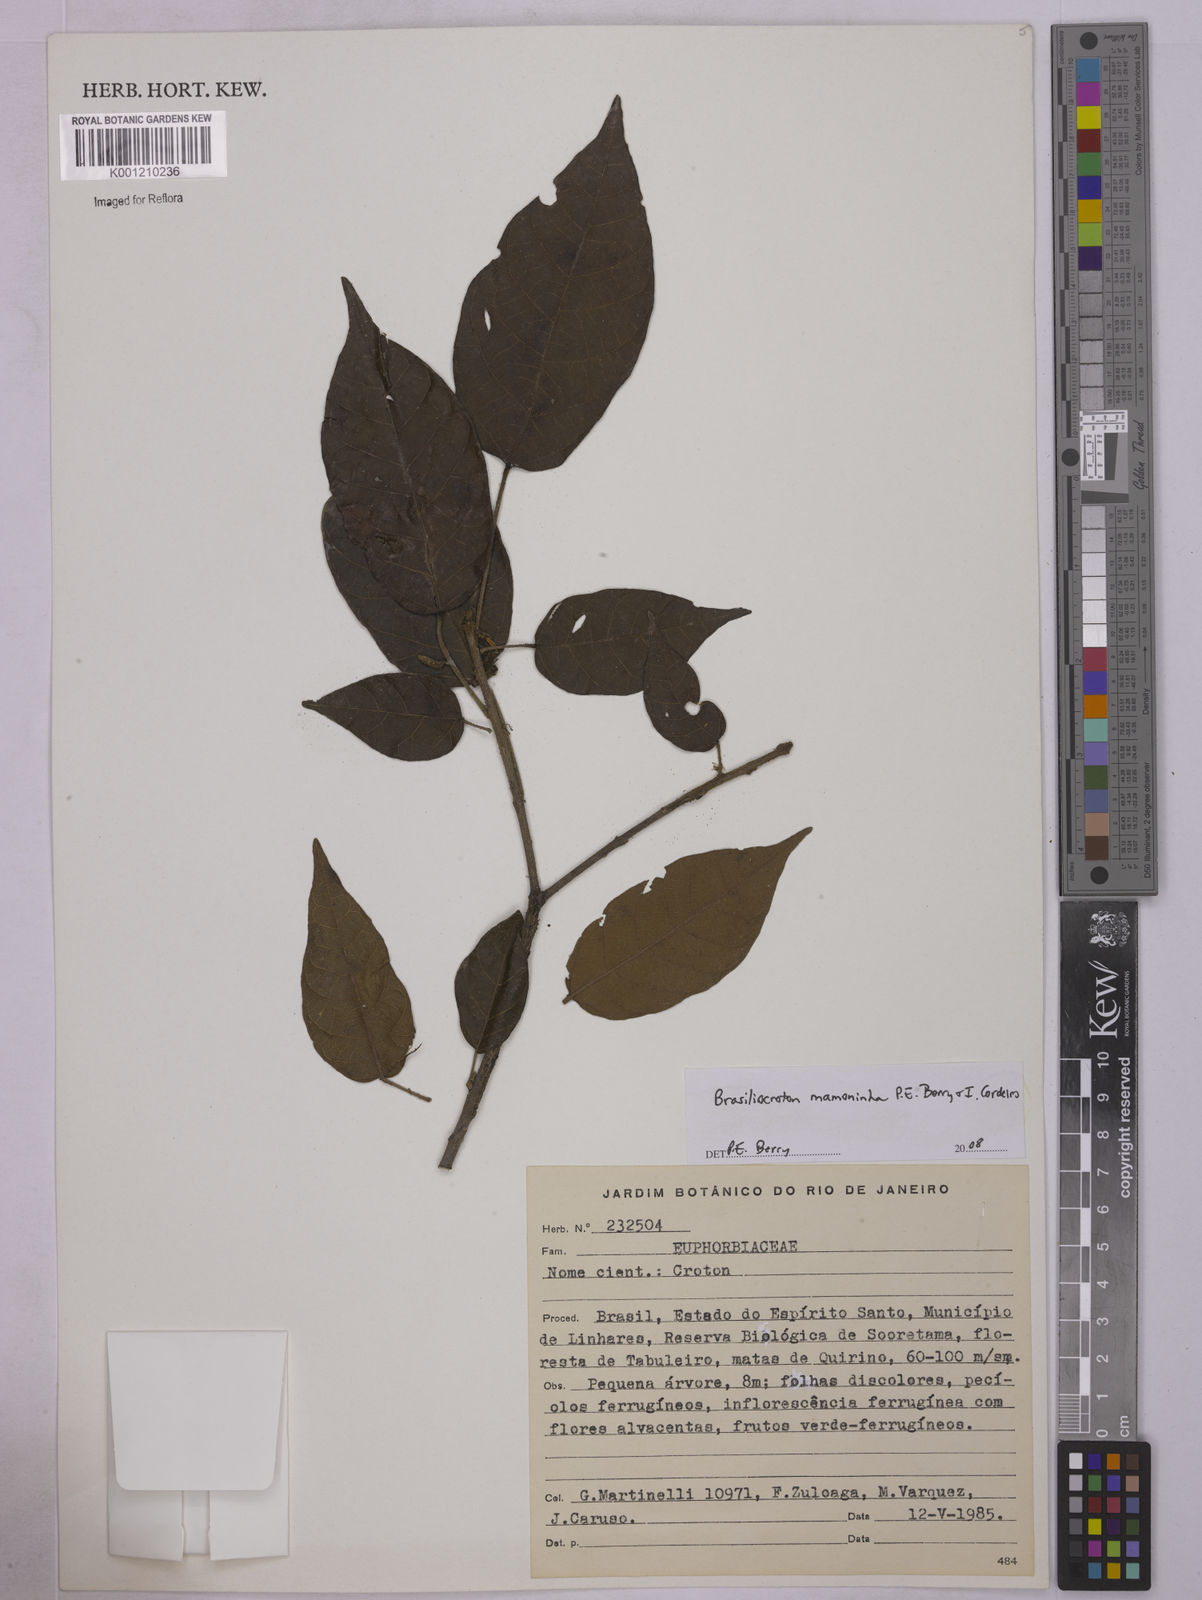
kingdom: Plantae
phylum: Tracheophyta
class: Magnoliopsida
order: Malpighiales
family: Euphorbiaceae
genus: Brasiliocroton
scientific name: Brasiliocroton mamoninha
